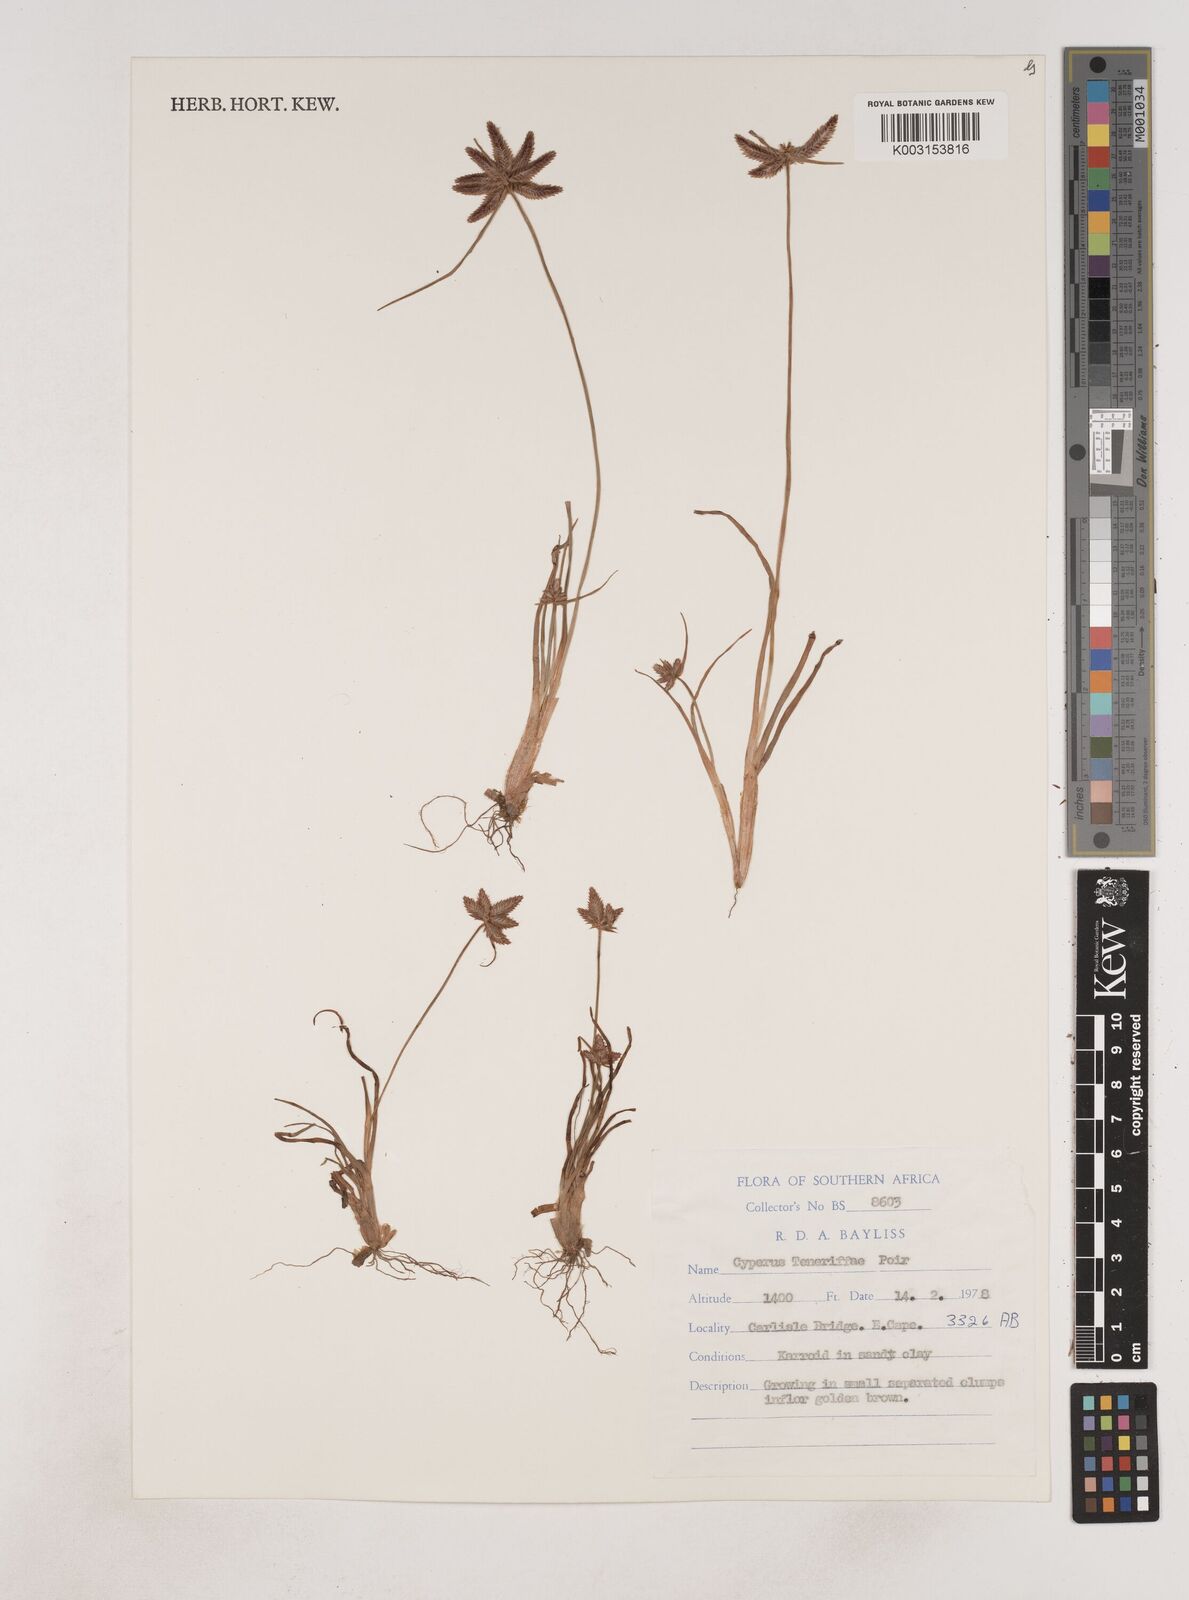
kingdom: Plantae
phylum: Tracheophyta
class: Liliopsida
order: Poales
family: Cyperaceae
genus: Cyperus
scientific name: Cyperus rubicundus
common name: Coco-grass
